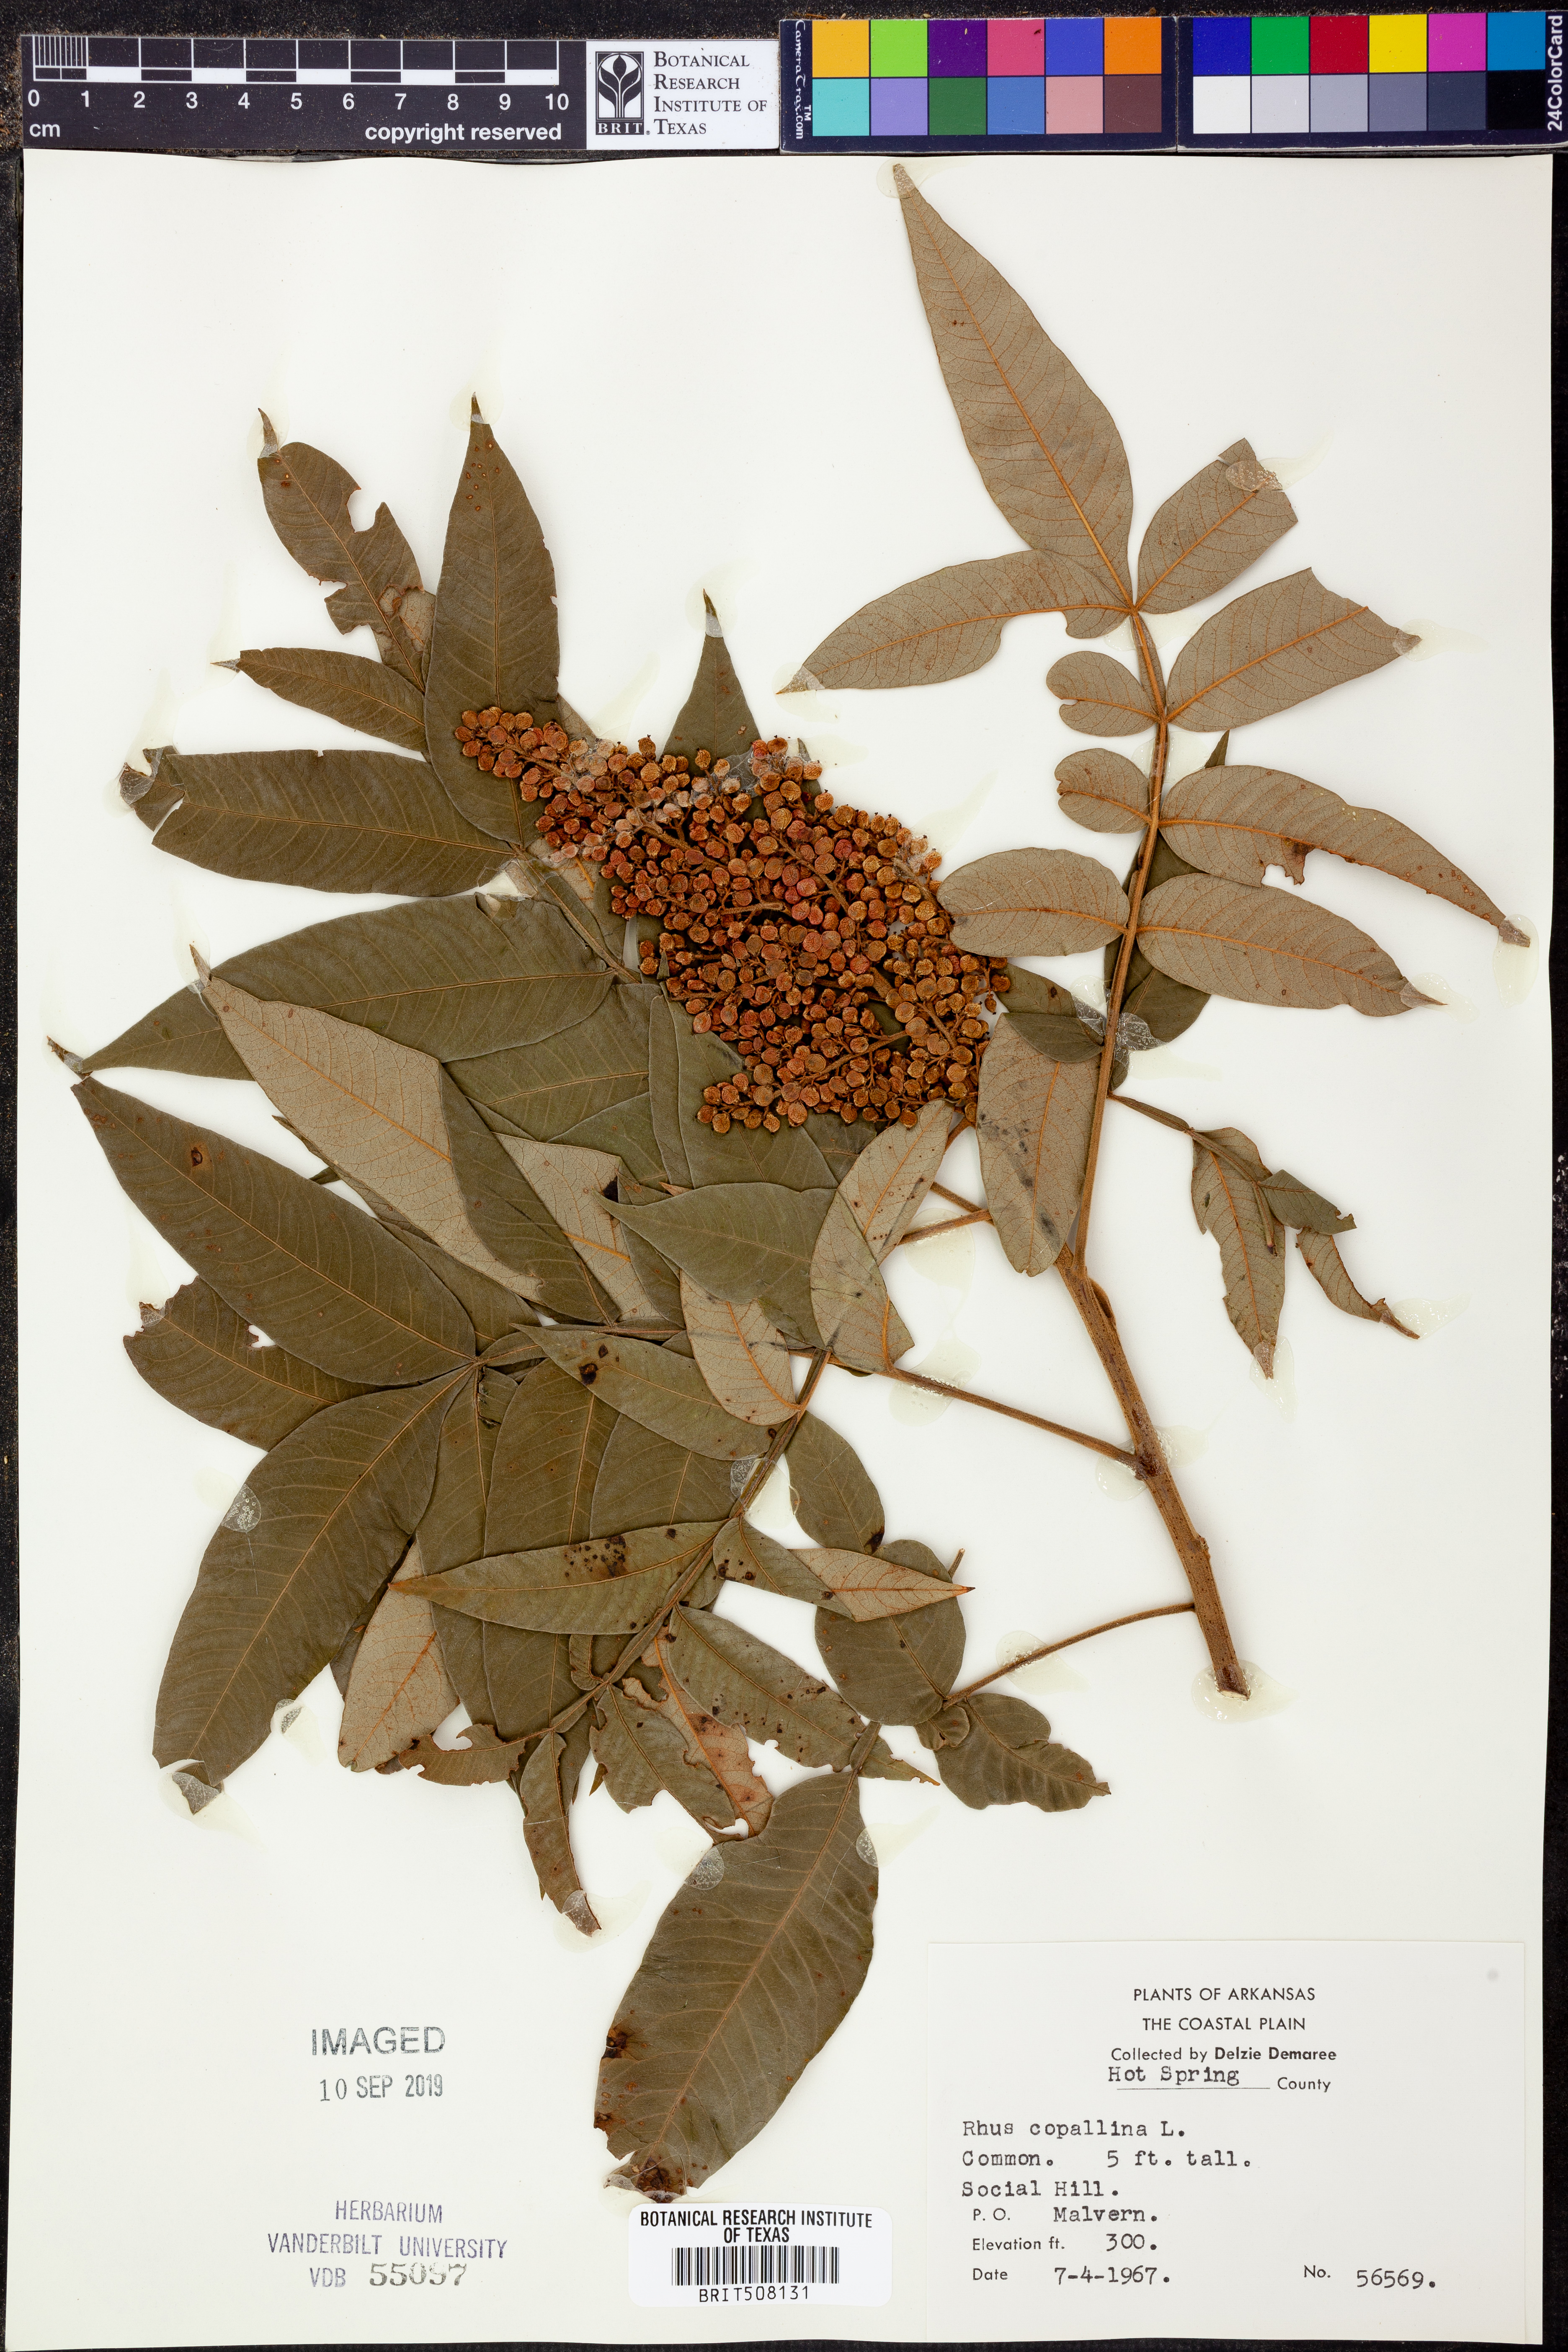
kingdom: Plantae
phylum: Tracheophyta
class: Magnoliopsida
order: Sapindales
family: Anacardiaceae
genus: Rhus
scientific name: Rhus copallina
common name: Shining sumac
